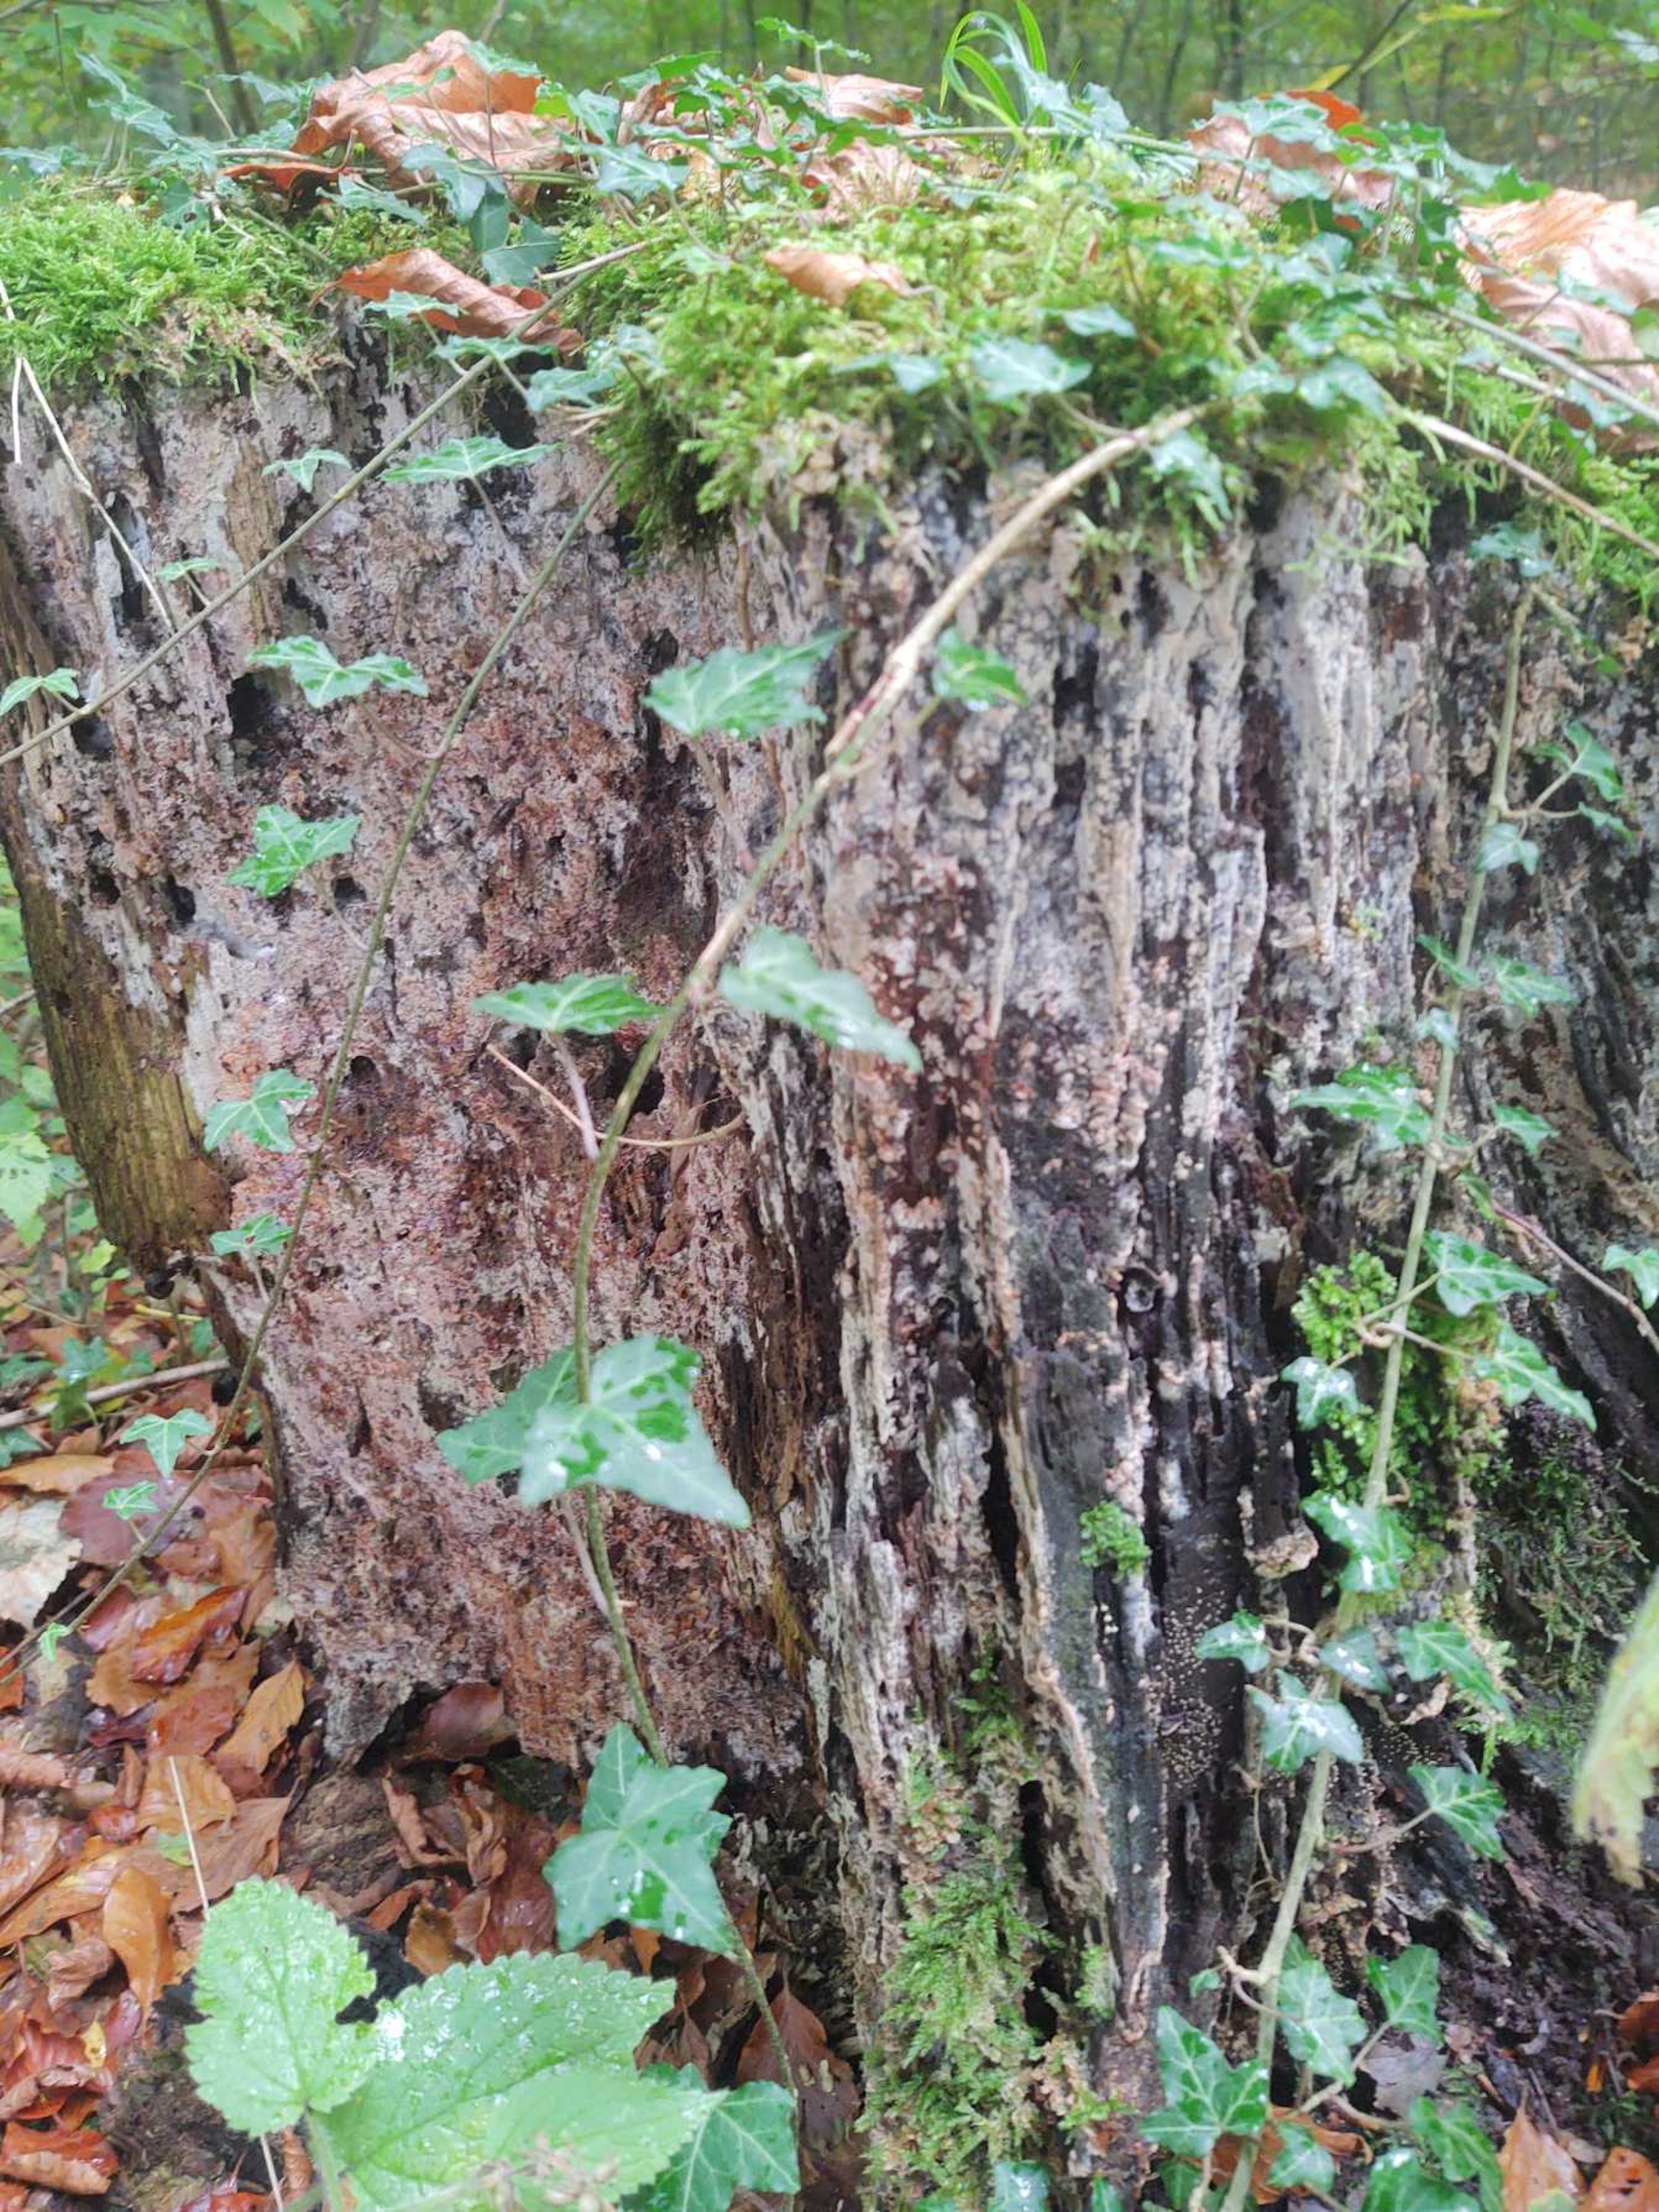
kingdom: Plantae
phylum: Tracheophyta
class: Magnoliopsida
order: Apiales
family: Araliaceae
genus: Hedera
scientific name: Hedera helix
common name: Vedbend
